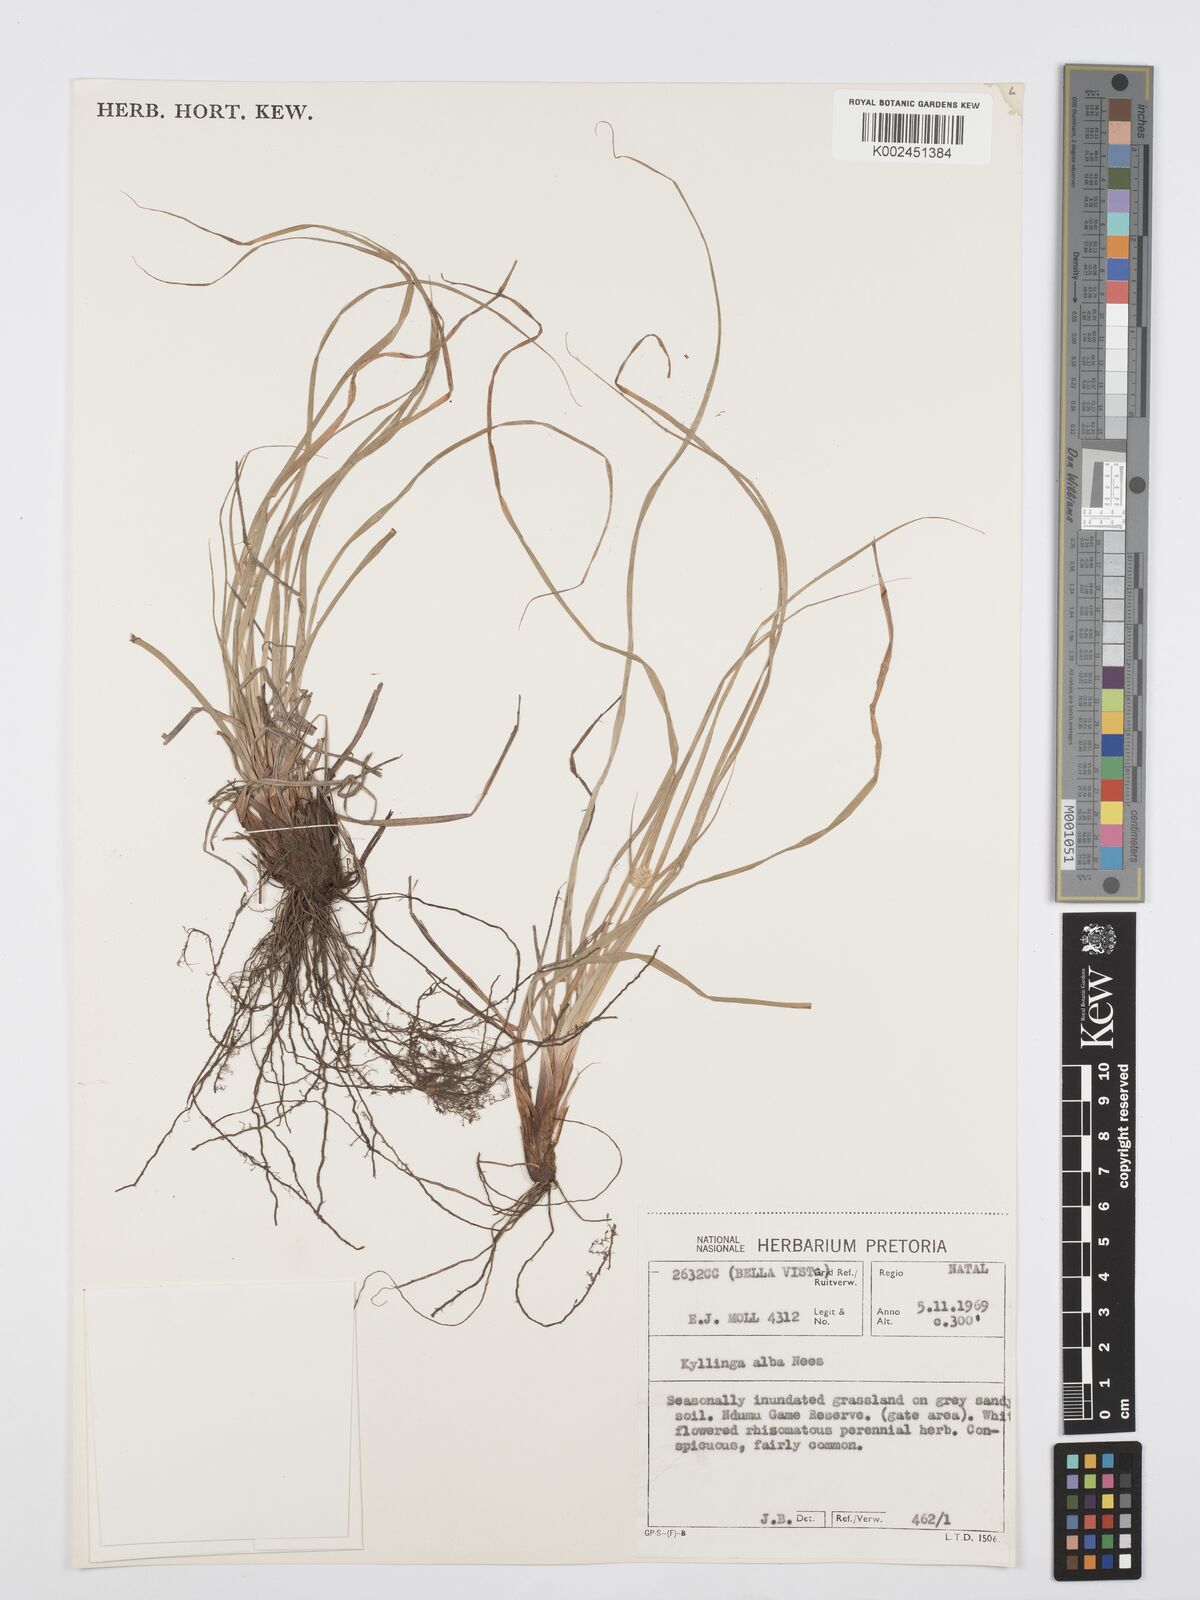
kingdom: Plantae
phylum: Tracheophyta
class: Liliopsida
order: Poales
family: Cyperaceae
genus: Cyperus
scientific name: Cyperus alatus
